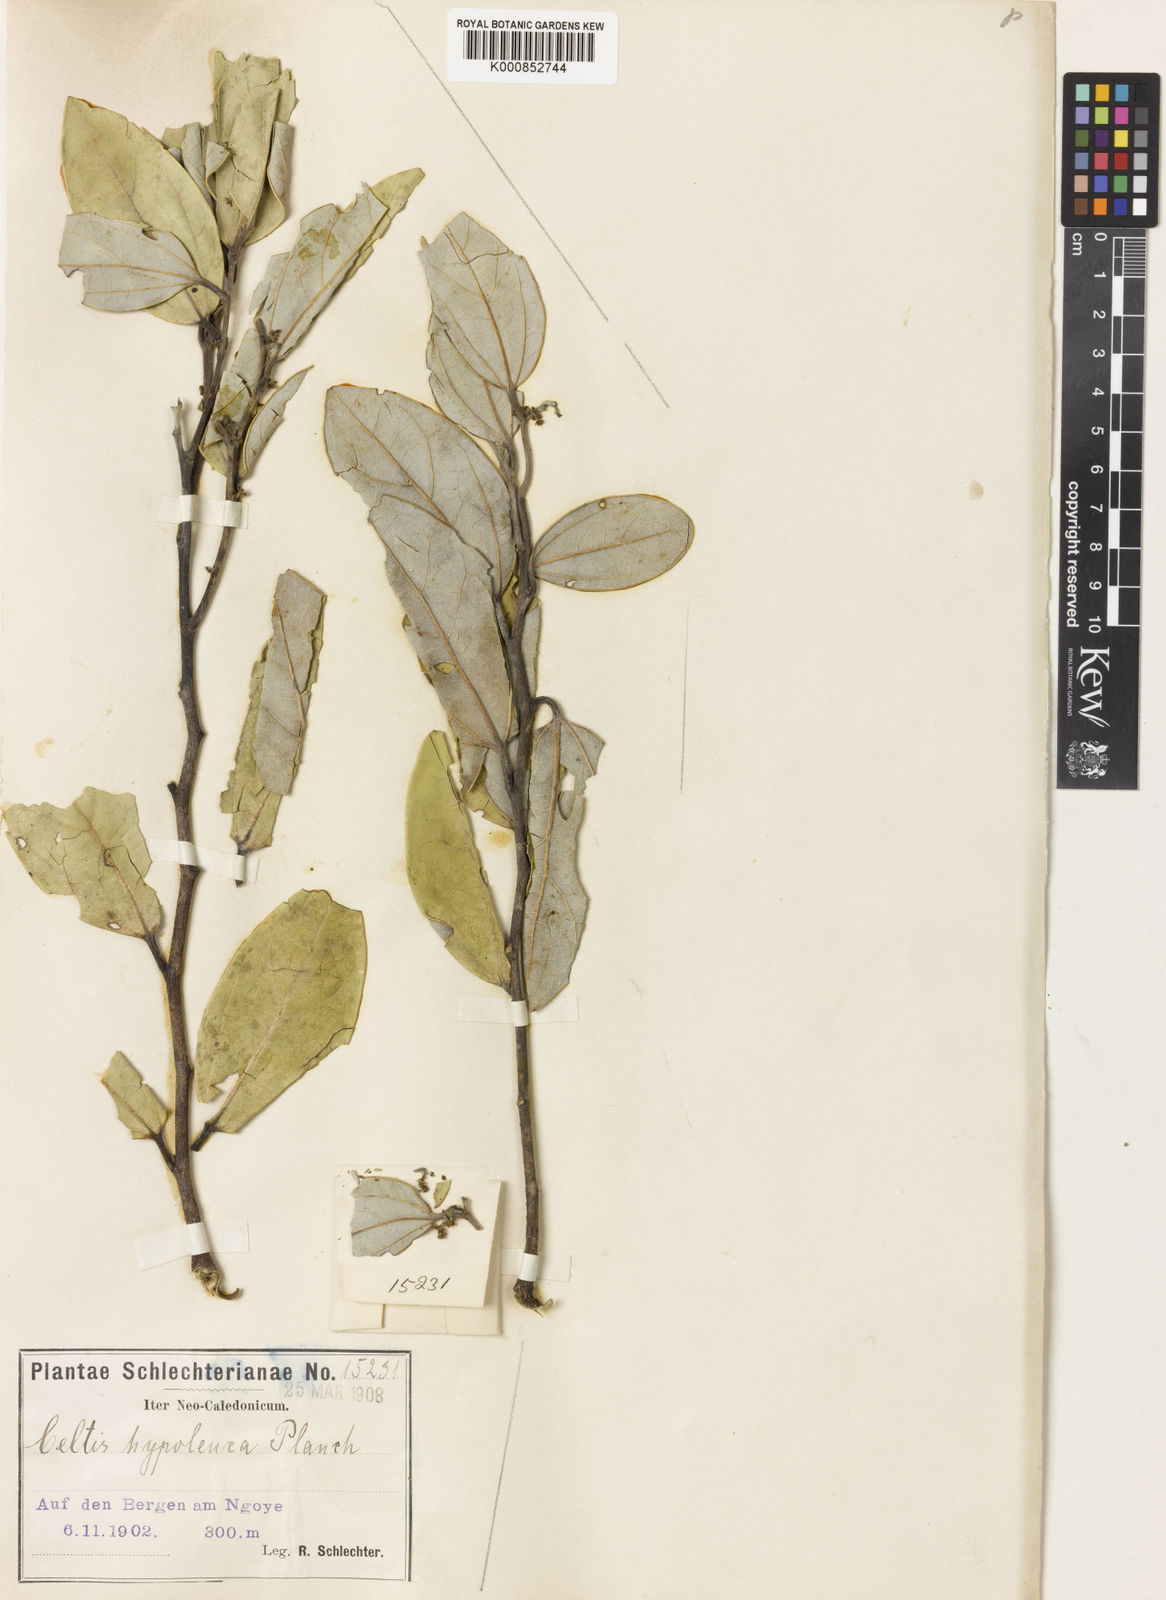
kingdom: Plantae
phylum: Tracheophyta
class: Magnoliopsida
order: Rosales
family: Cannabaceae
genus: Celtis
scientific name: Celtis hypoleuca
